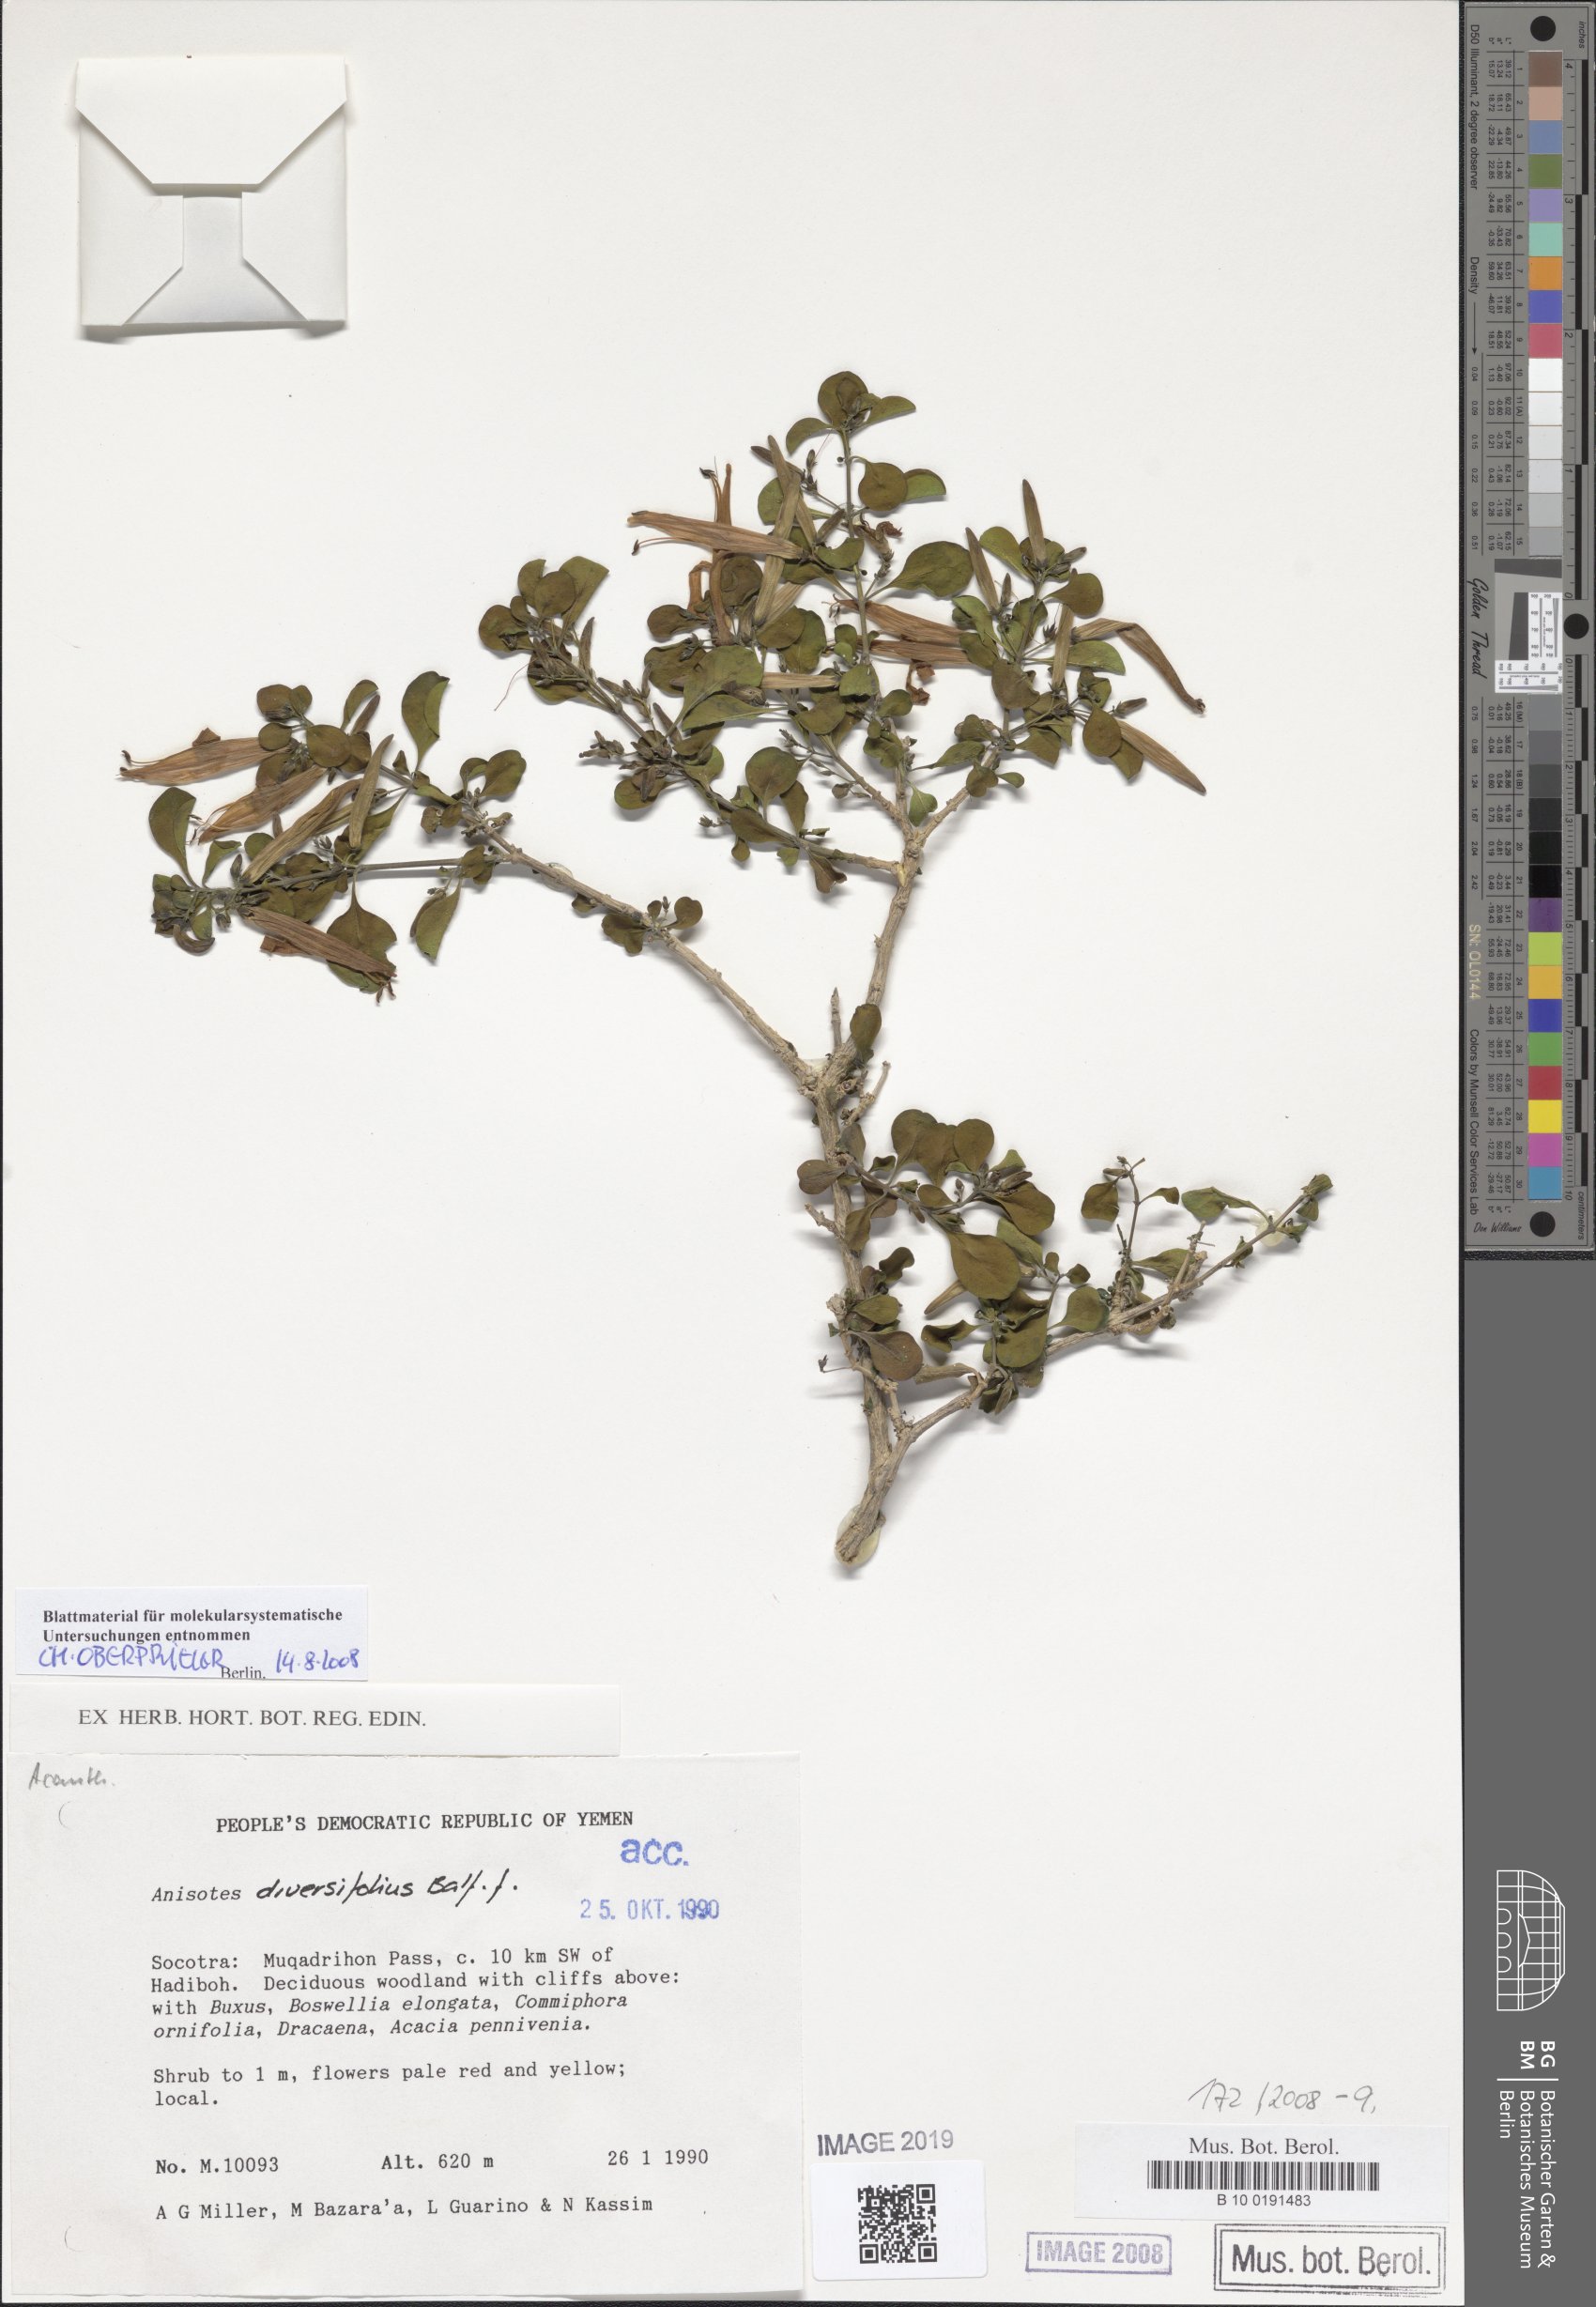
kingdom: Plantae
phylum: Tracheophyta
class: Magnoliopsida
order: Lamiales
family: Acanthaceae
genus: Anisotes
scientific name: Anisotes diversifolius
